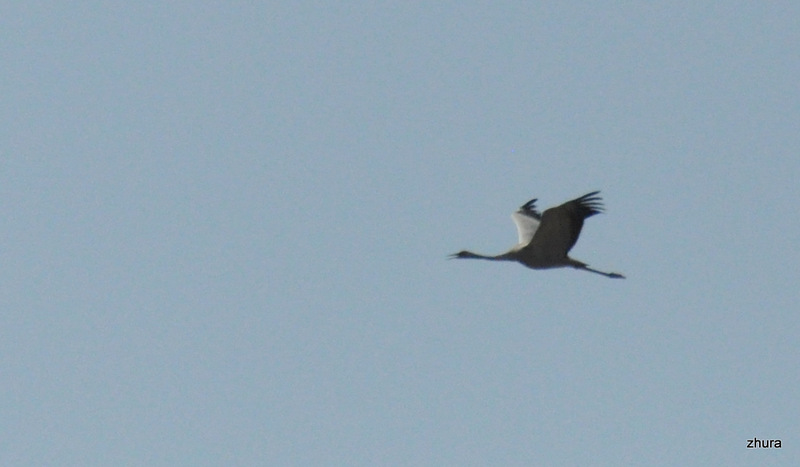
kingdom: Animalia
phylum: Chordata
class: Aves
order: Gruiformes
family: Gruidae
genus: Grus
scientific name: Grus grus
